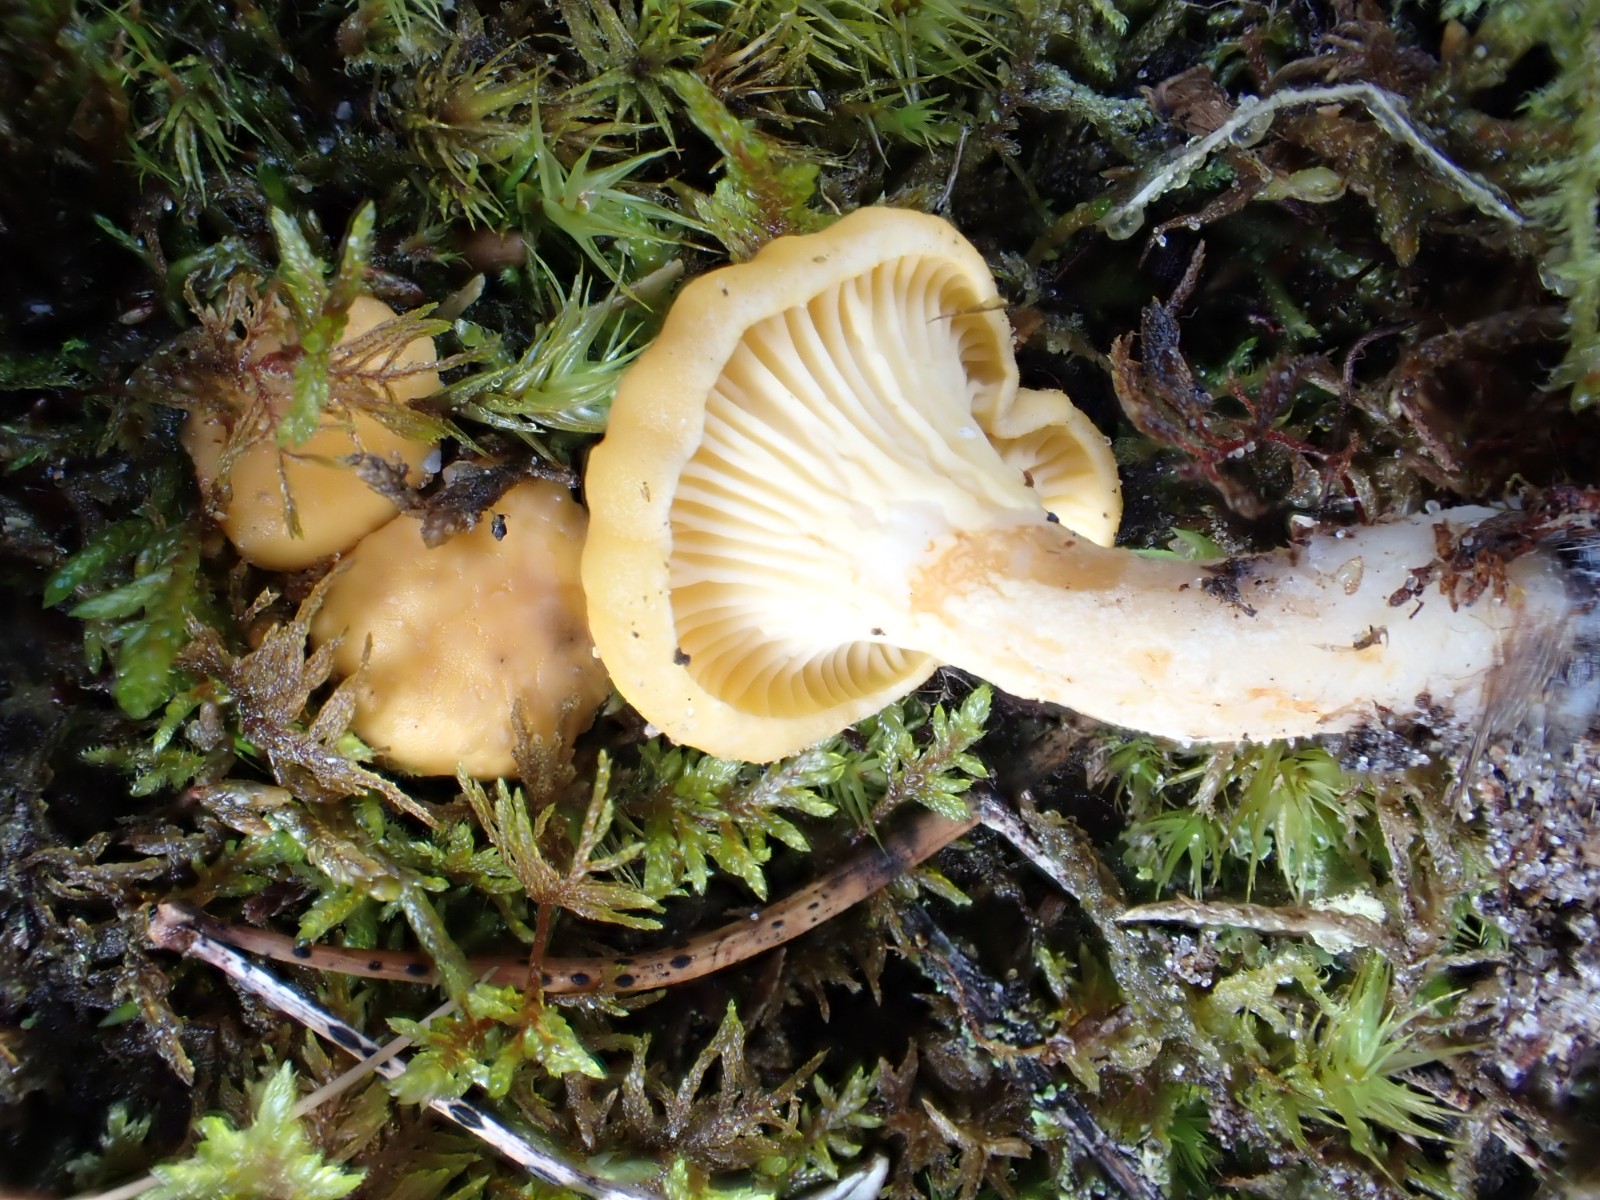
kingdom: Fungi
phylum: Basidiomycota
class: Agaricomycetes
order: Cantharellales
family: Hydnaceae
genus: Cantharellus
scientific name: Cantharellus cibarius
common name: almindelig kantarel
